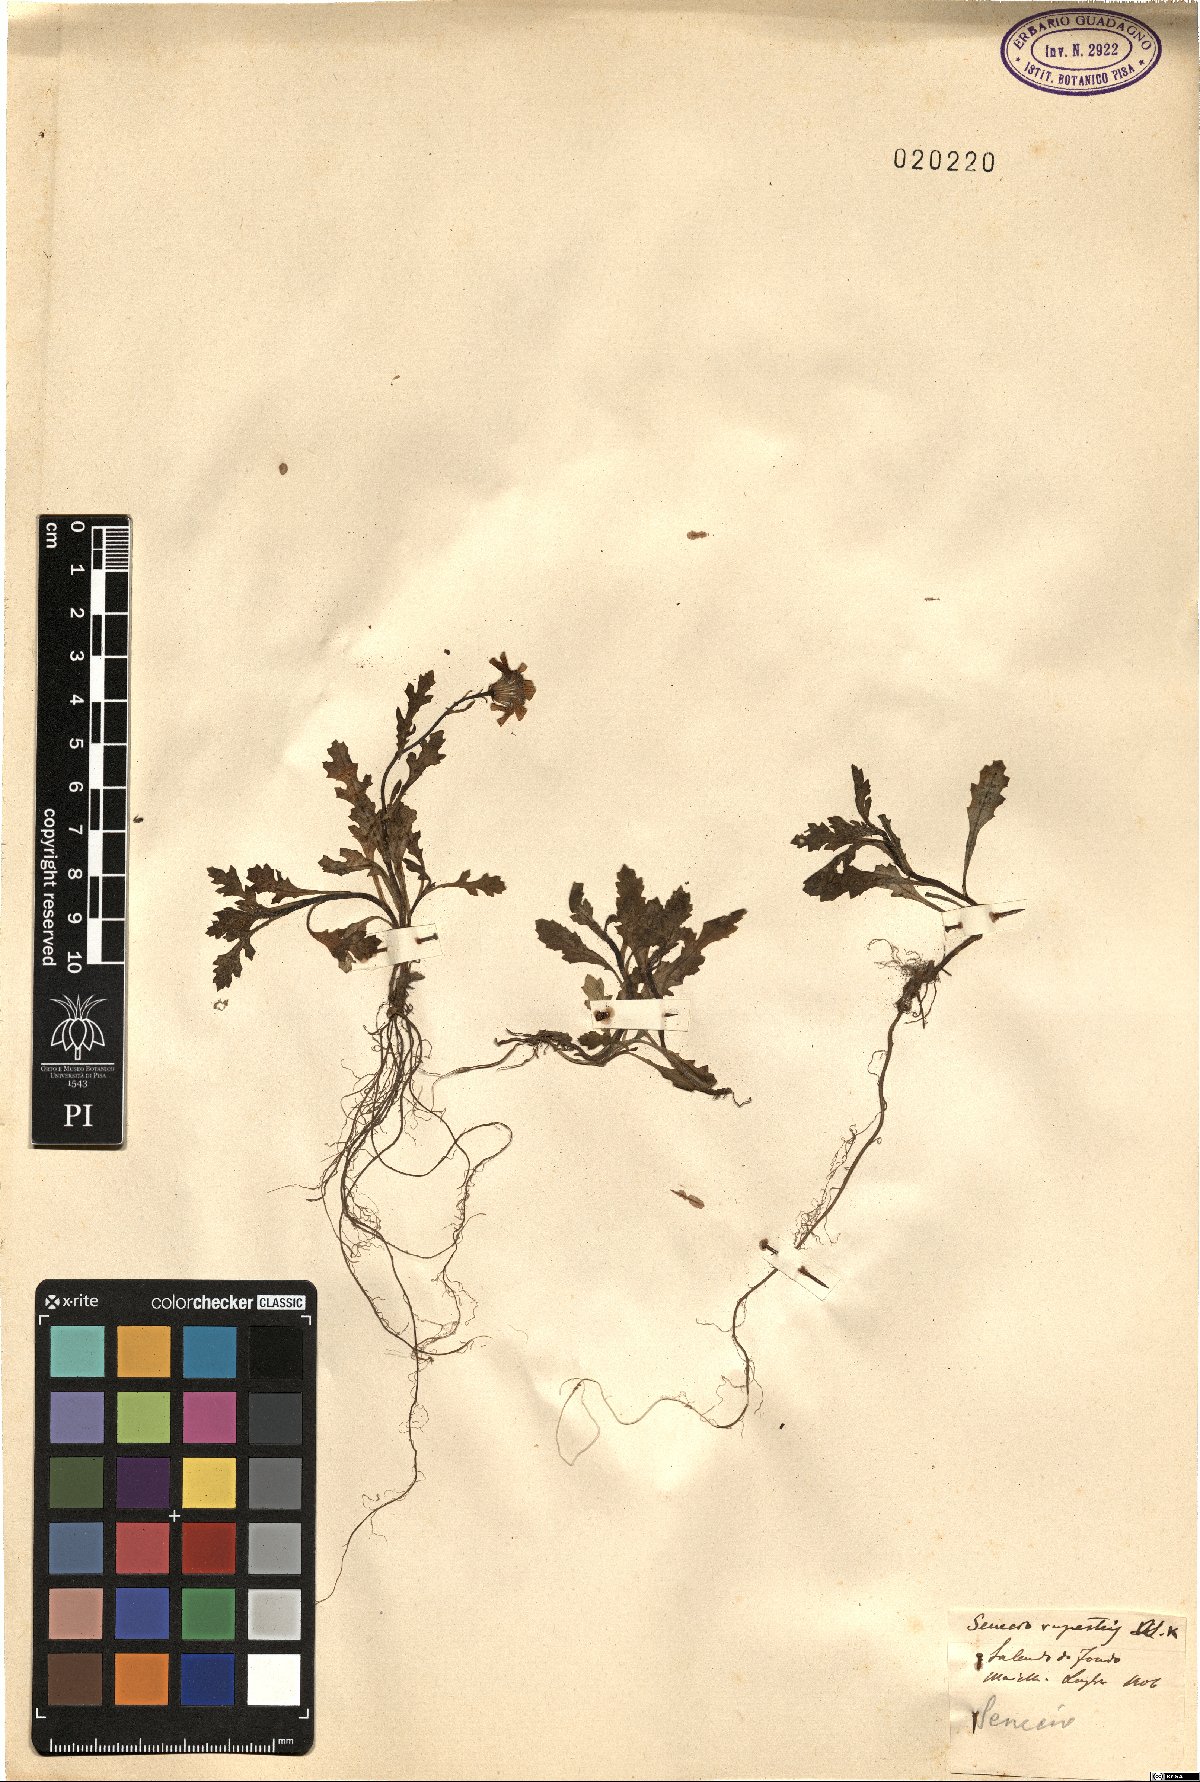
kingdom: Plantae
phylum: Tracheophyta
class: Magnoliopsida
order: Asterales
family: Asteraceae
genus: Senecio
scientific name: Senecio rupestris
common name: Rock ragwort
